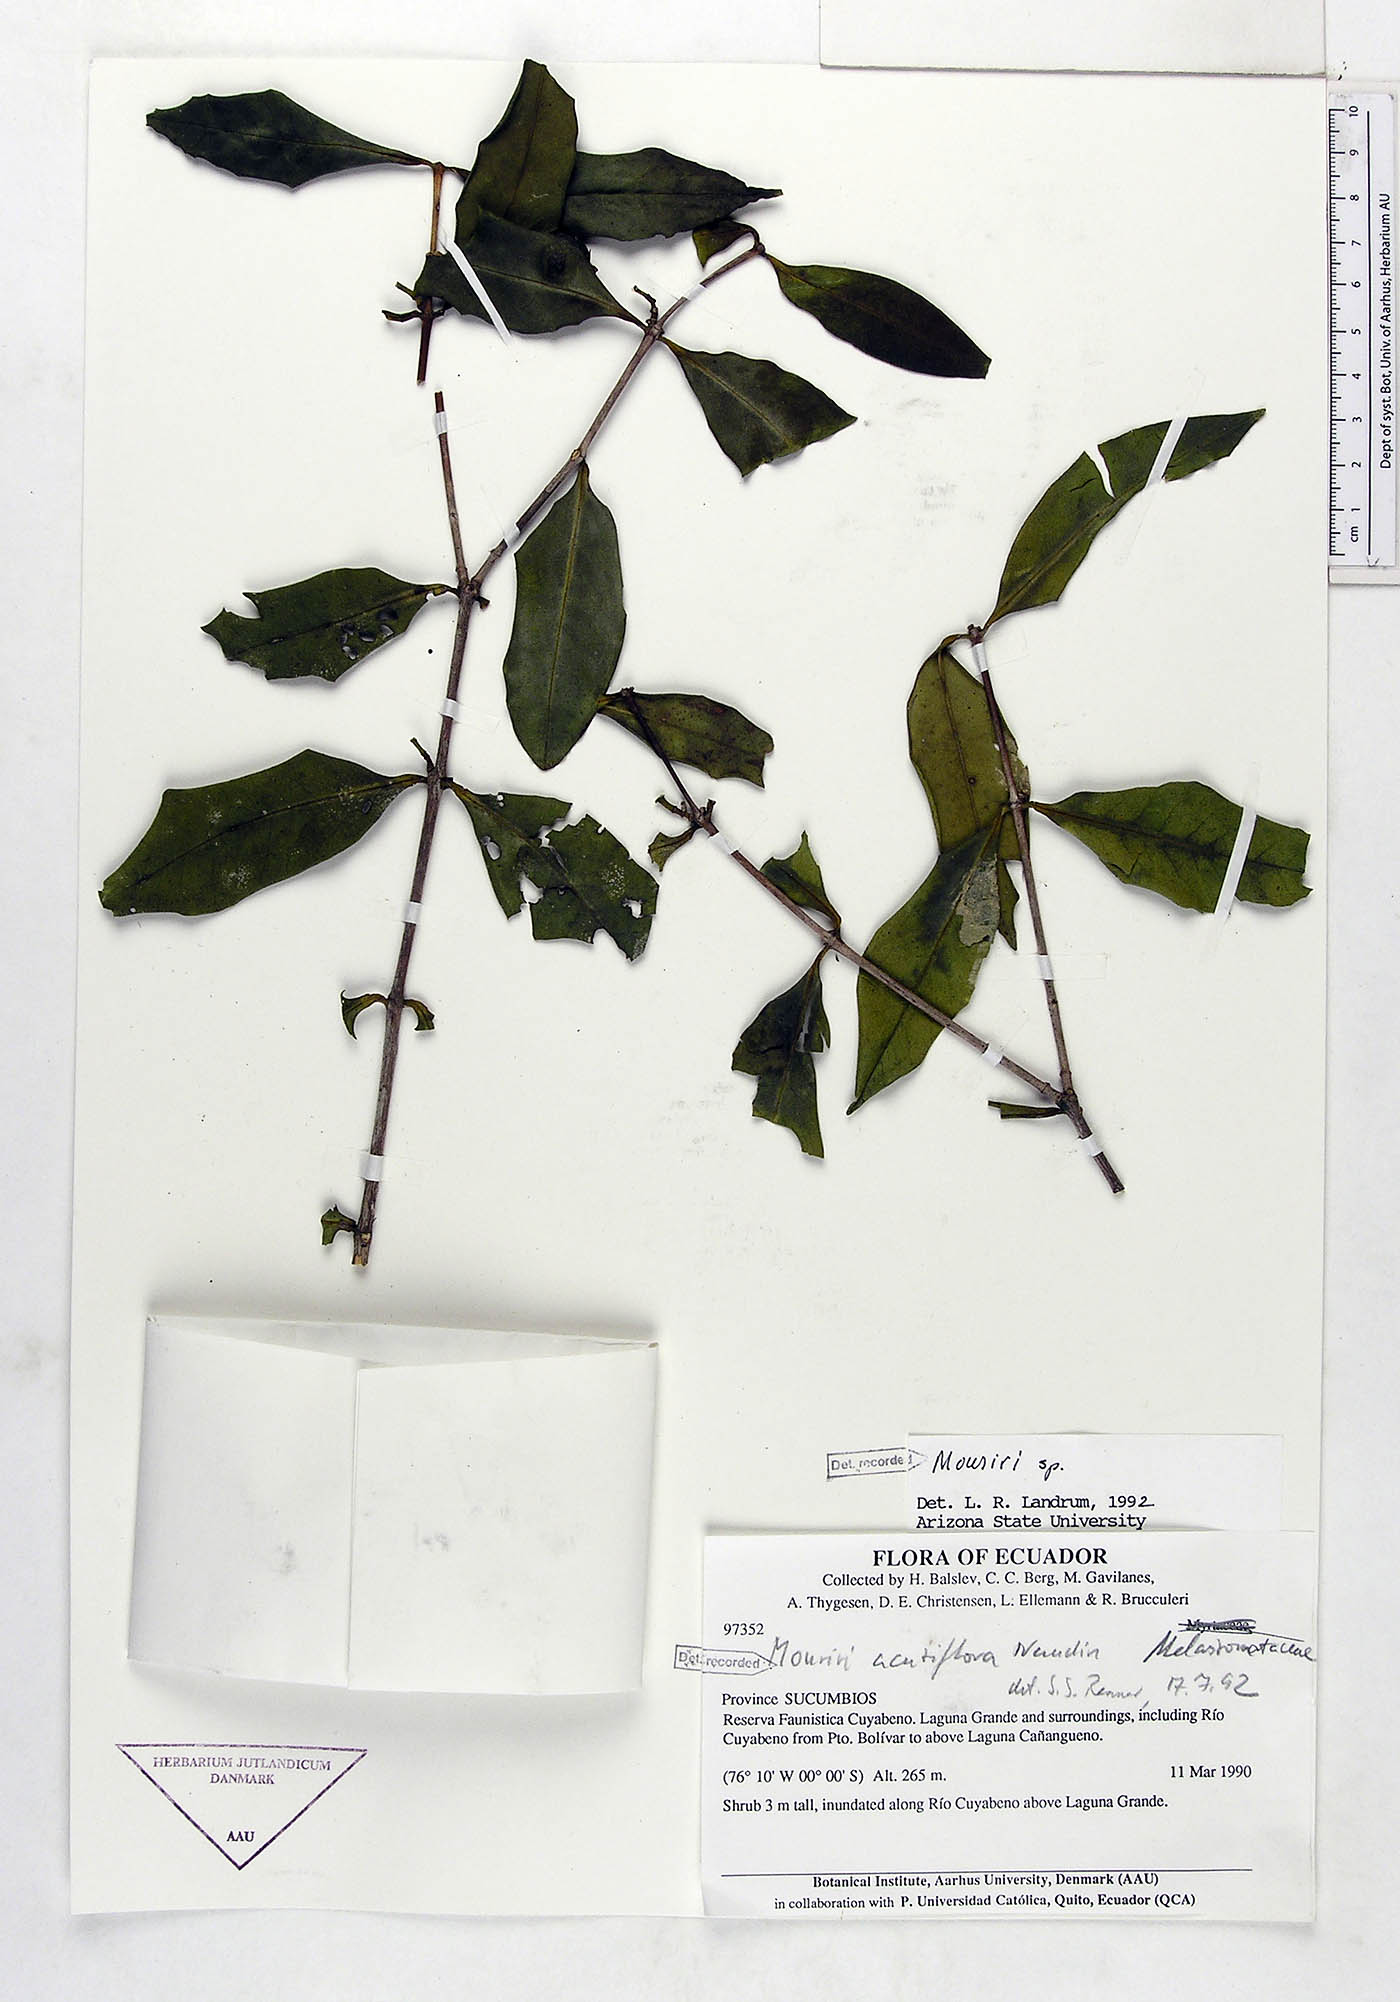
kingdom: Plantae
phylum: Tracheophyta
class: Magnoliopsida
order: Myrtales
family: Melastomataceae
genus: Mouriri
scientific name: Mouriri acutiflora
